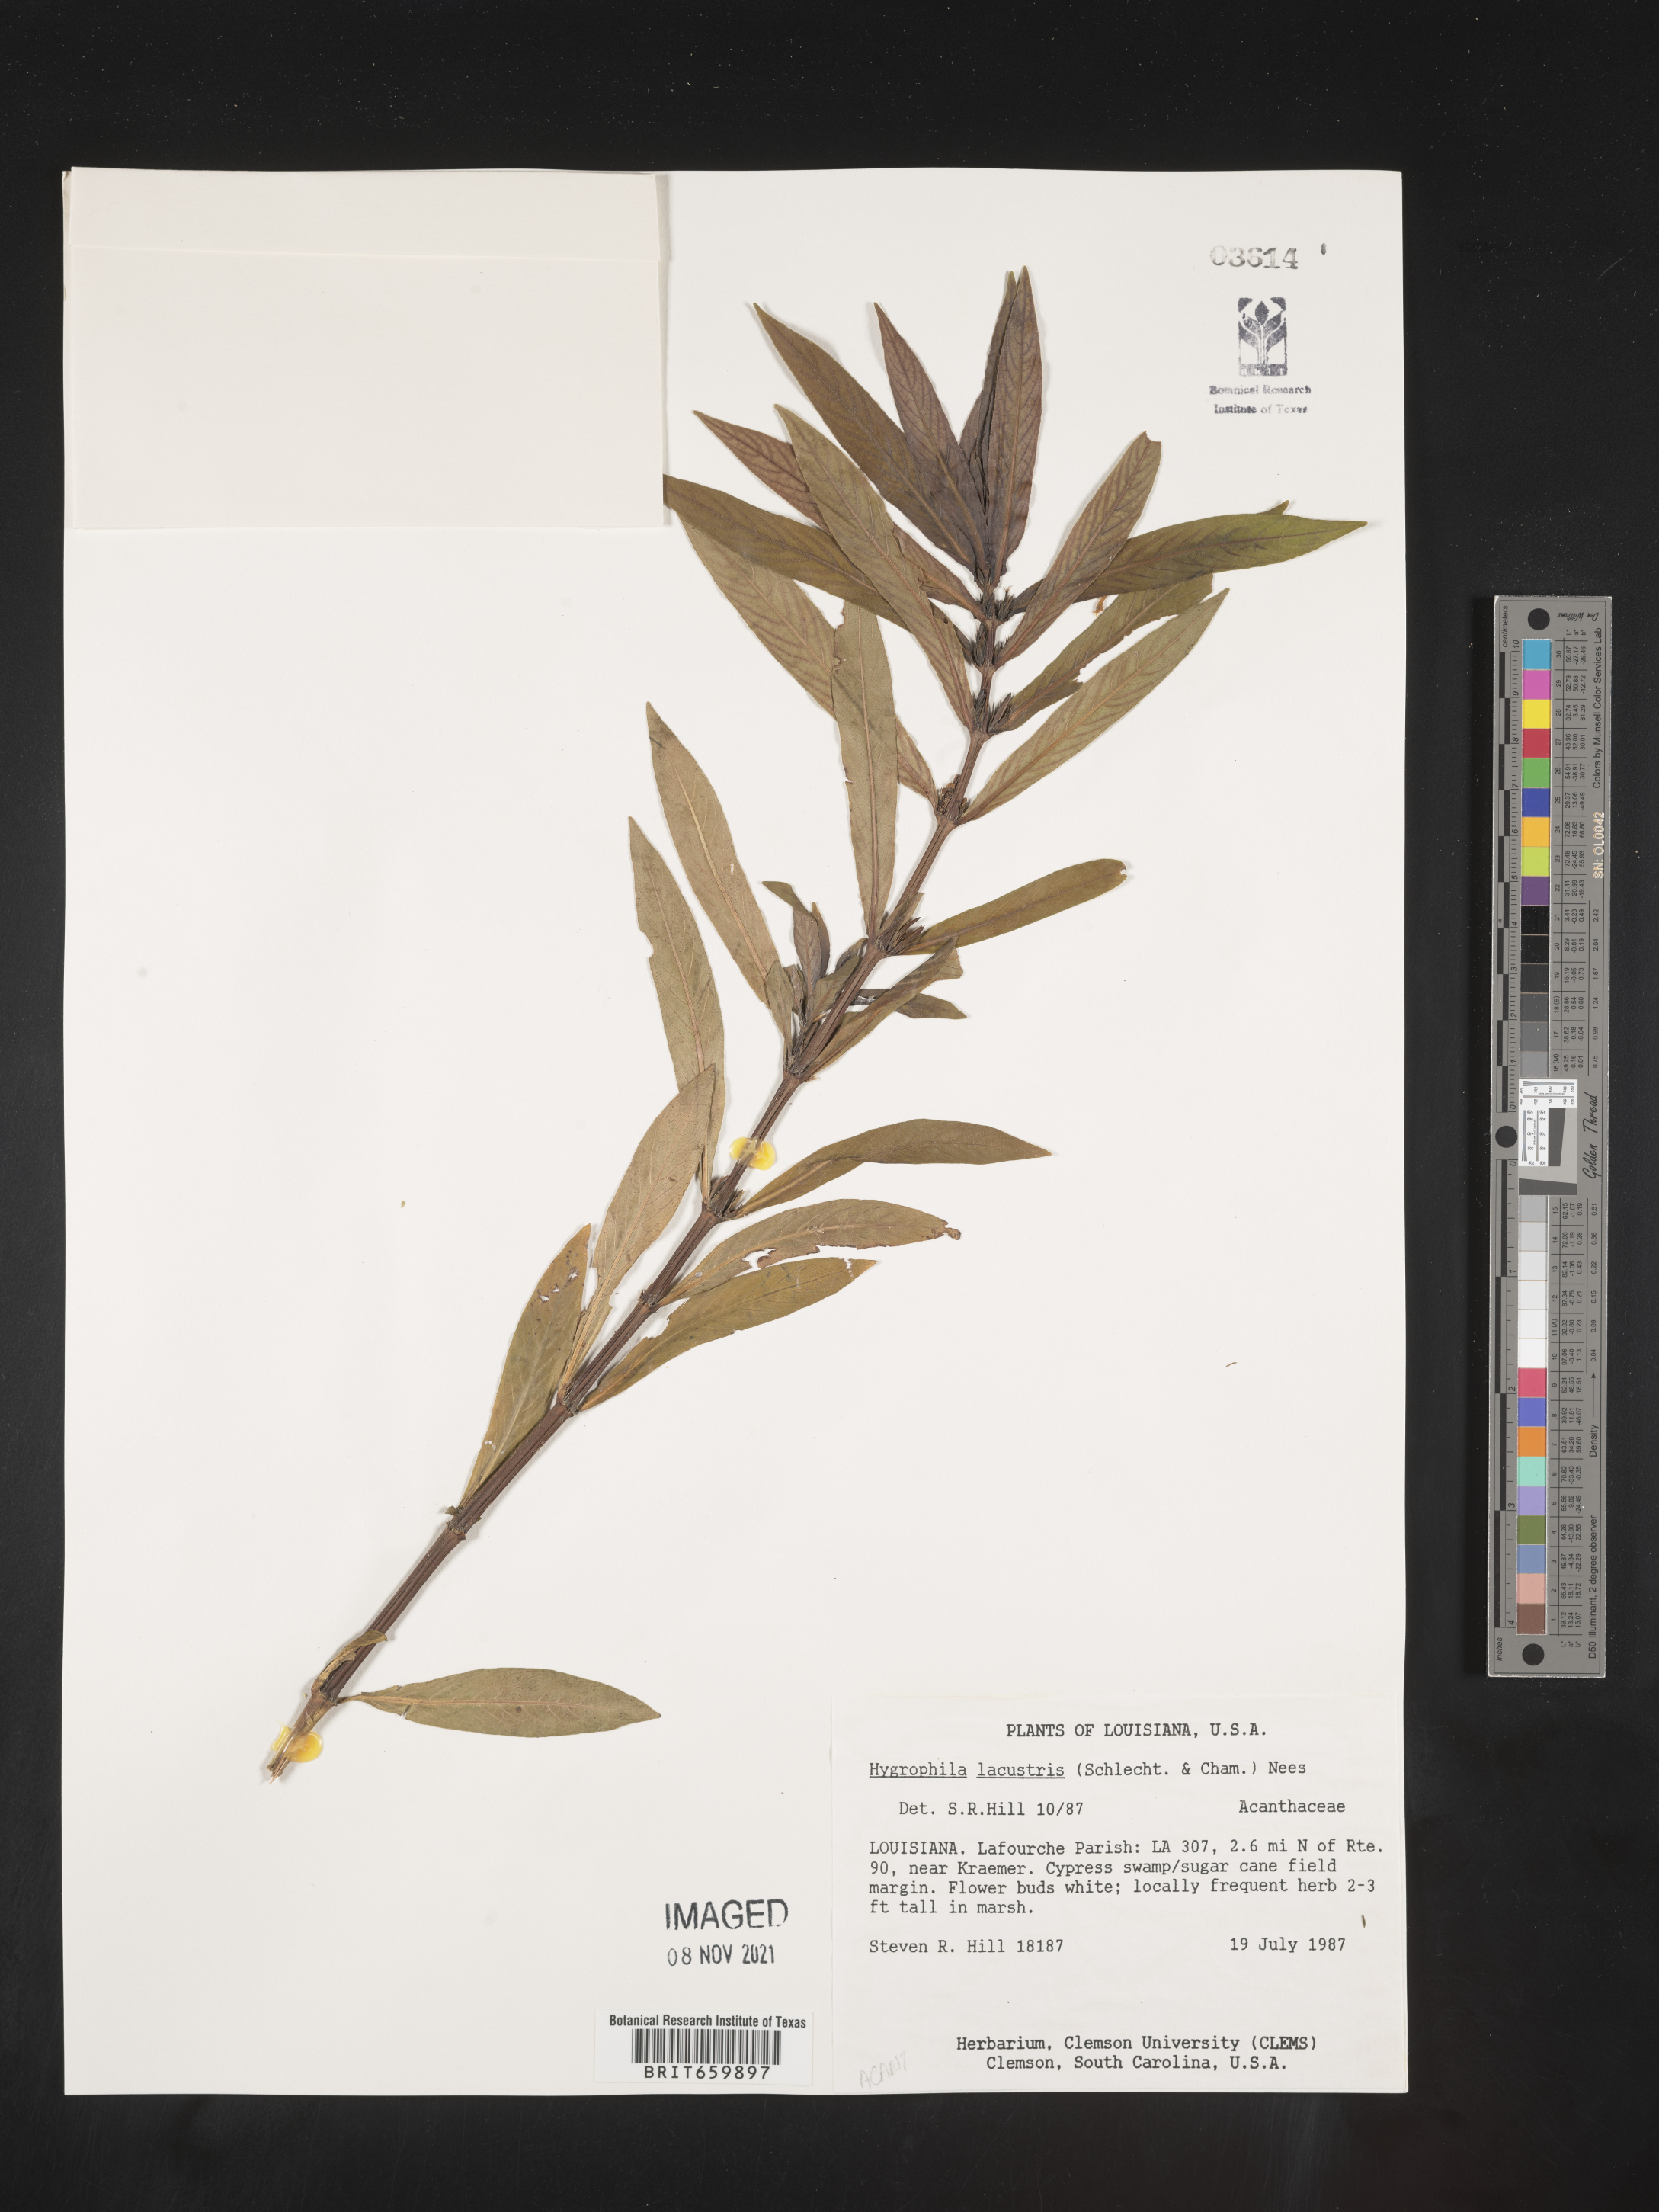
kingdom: Plantae
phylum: Tracheophyta
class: Magnoliopsida
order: Lamiales
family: Acanthaceae
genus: Hygrophila
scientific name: Hygrophila costata
